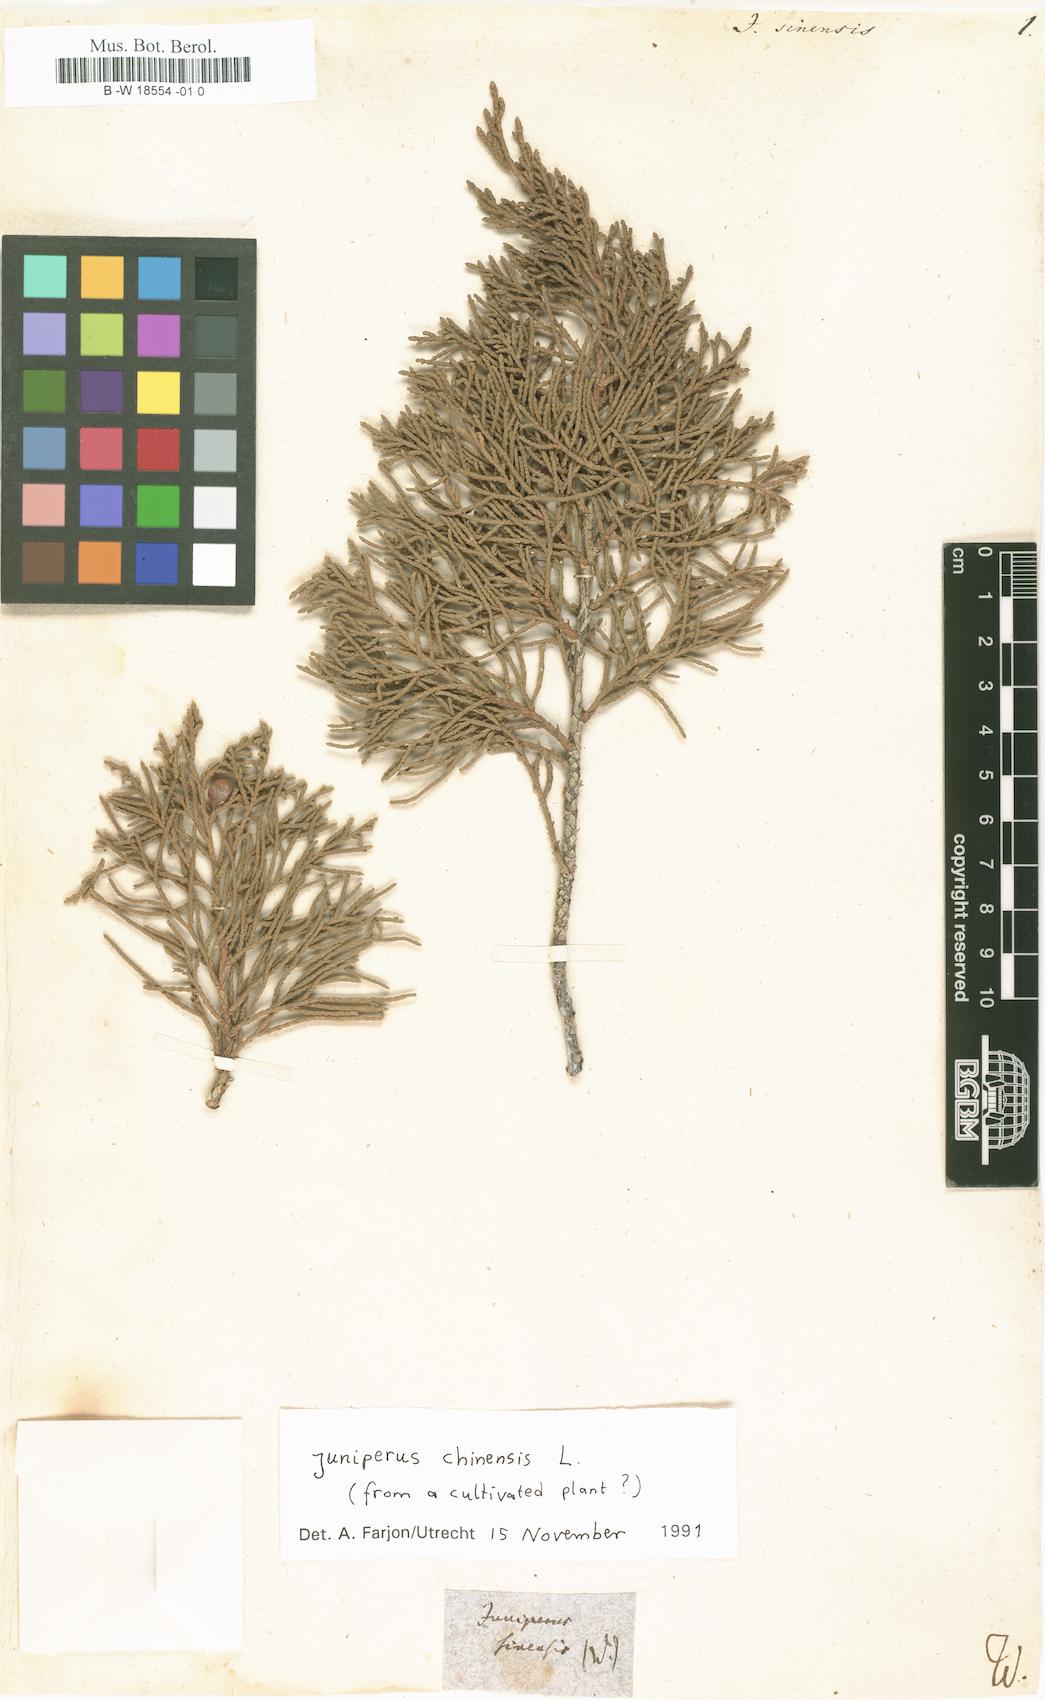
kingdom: Plantae
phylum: Tracheophyta
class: Pinopsida
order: Pinales
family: Cupressaceae
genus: Juniperus
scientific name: Juniperus chinensis
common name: Chinese juniper
